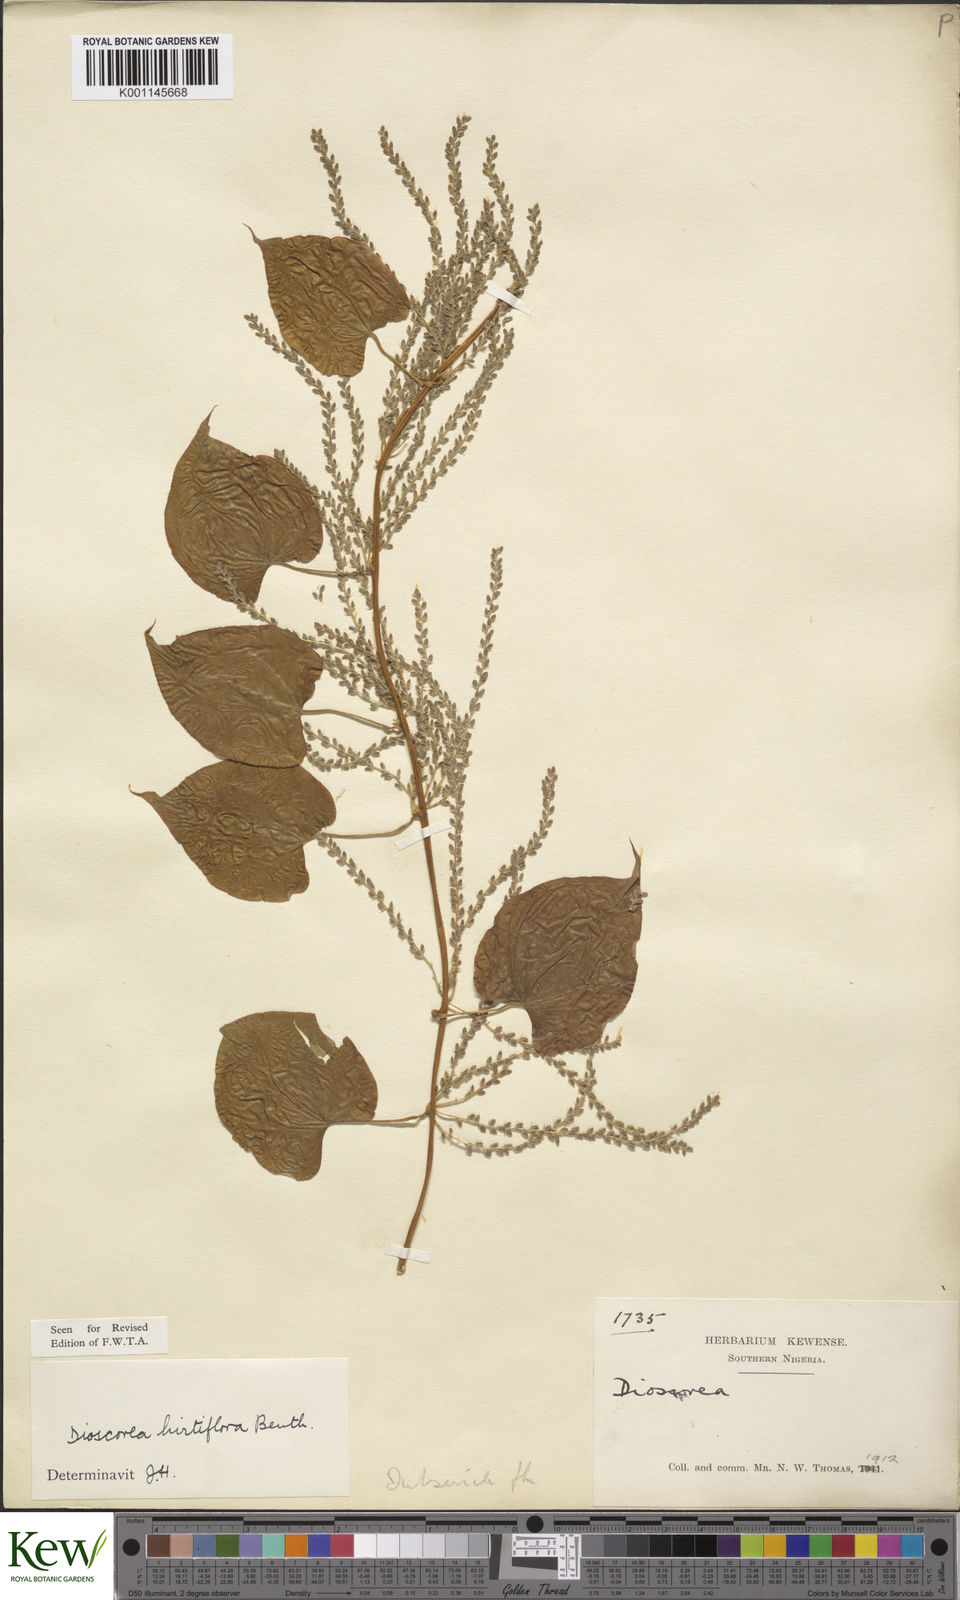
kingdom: Plantae
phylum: Tracheophyta
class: Liliopsida
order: Dioscoreales
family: Dioscoreaceae
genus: Dioscorea
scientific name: Dioscorea hirtiflora
